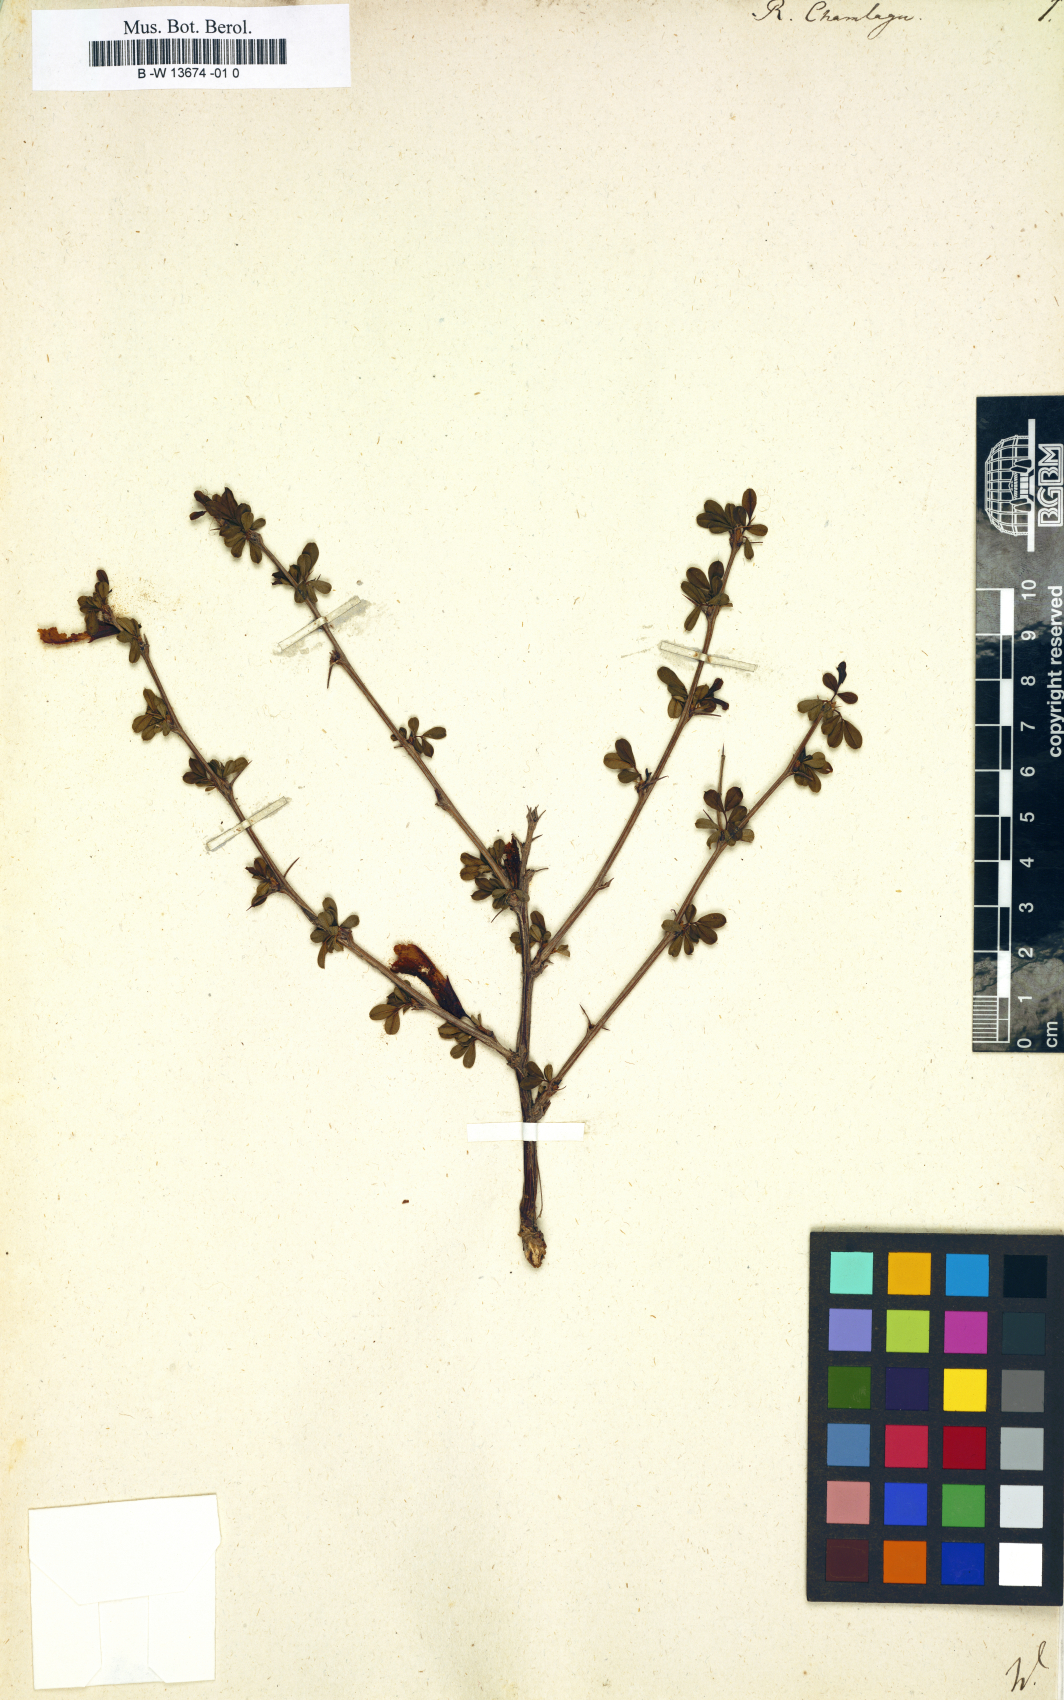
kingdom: Plantae
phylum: Tracheophyta
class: Magnoliopsida
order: Fabales
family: Fabaceae
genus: Caragana
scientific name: Caragana sinica
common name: Chinese peatree
